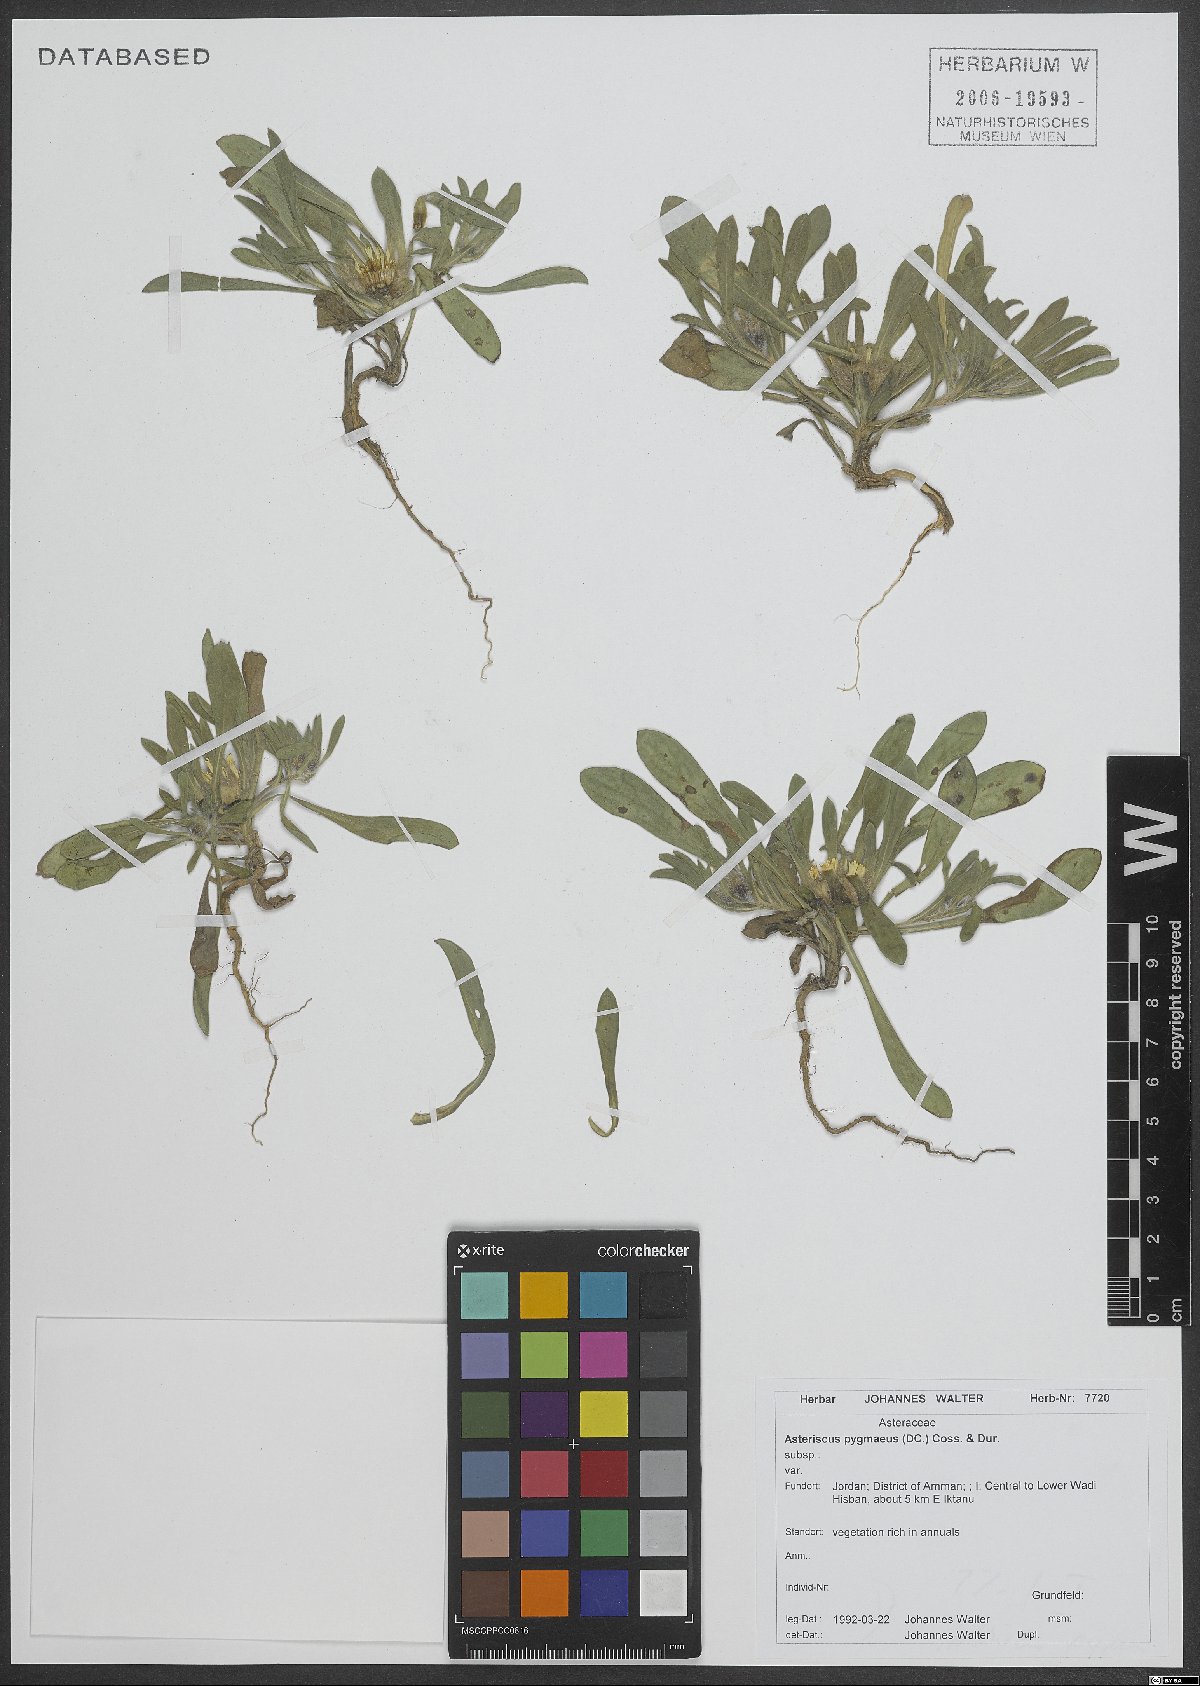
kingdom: Plantae
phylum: Tracheophyta
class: Magnoliopsida
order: Asterales
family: Asteraceae
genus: Pallenis
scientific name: Pallenis hierochuntica
